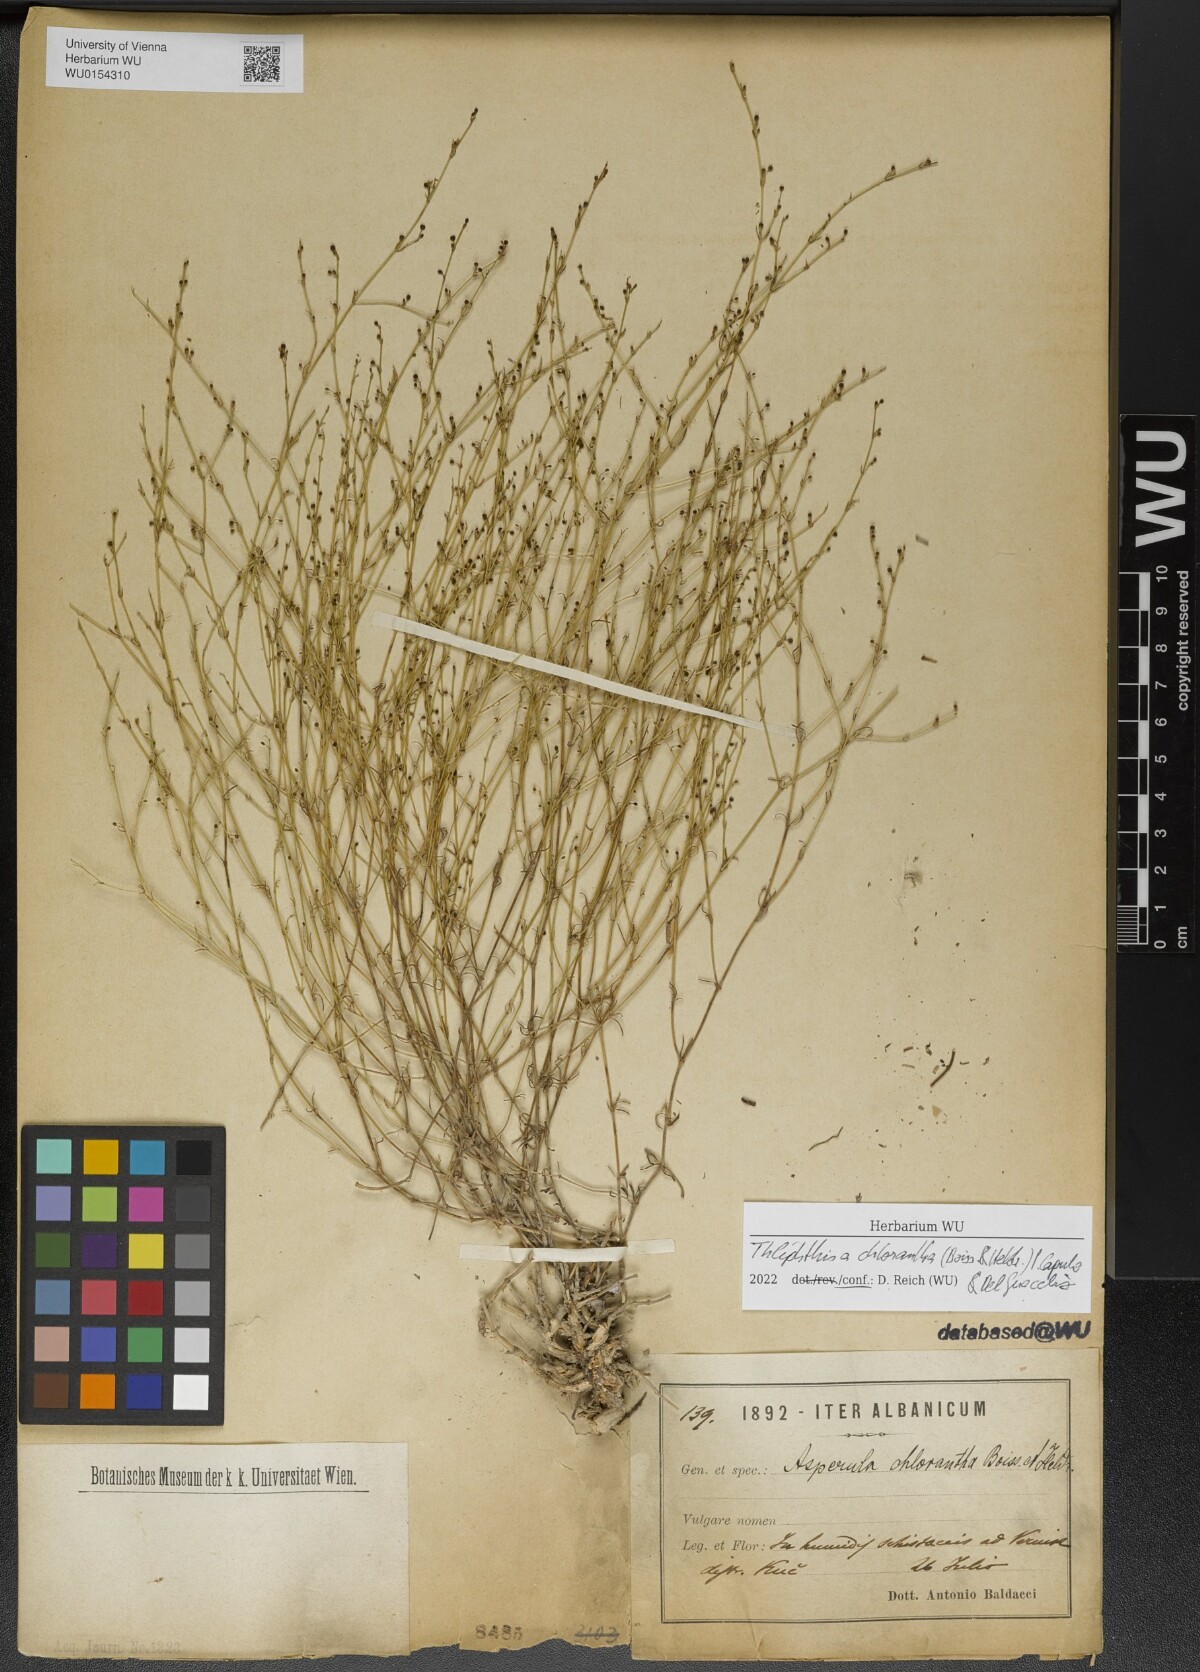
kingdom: Plantae
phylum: Tracheophyta
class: Magnoliopsida
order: Gentianales
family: Rubiaceae
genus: Thliphthisa
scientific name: Thliphthisa chlorantha
